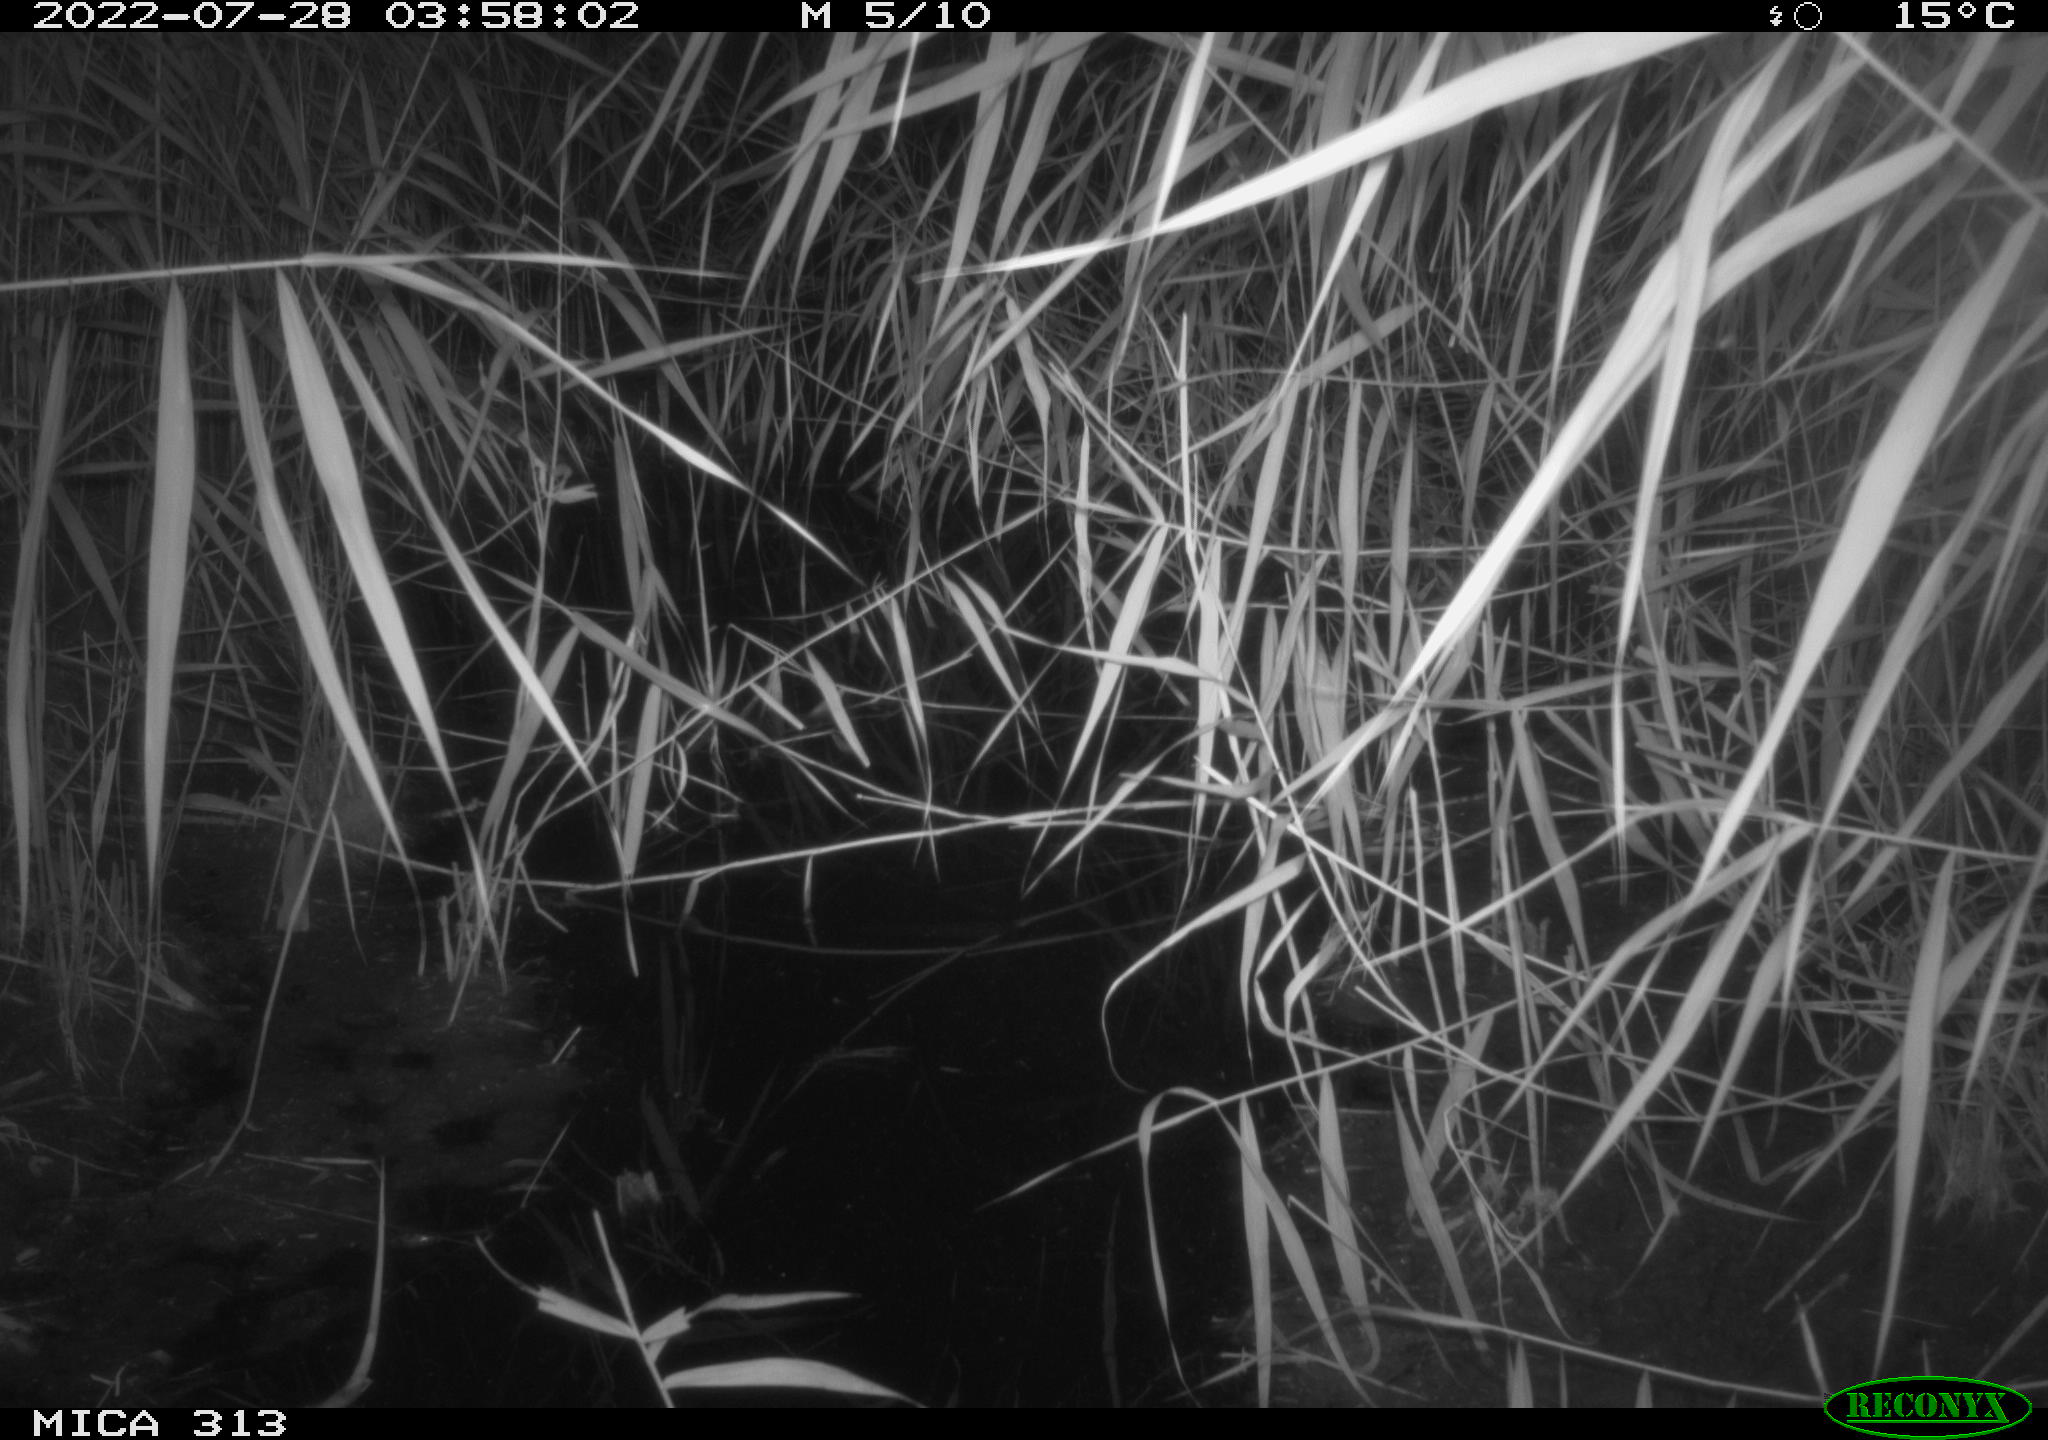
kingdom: Animalia
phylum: Chordata
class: Mammalia
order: Rodentia
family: Muridae
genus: Rattus
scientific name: Rattus norvegicus
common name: Brown rat
